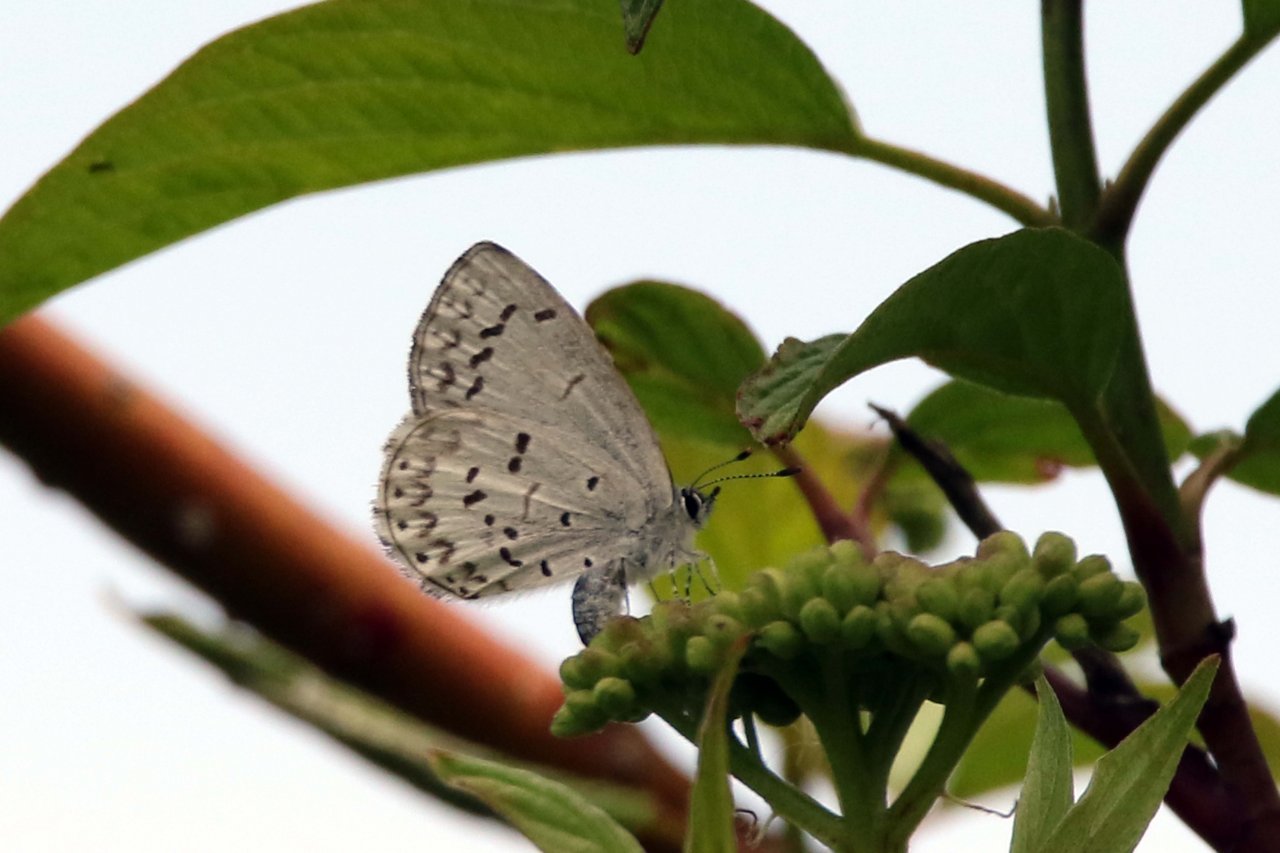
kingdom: Animalia
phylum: Arthropoda
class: Insecta
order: Lepidoptera
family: Lycaenidae
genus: Celastrina
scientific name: Celastrina
